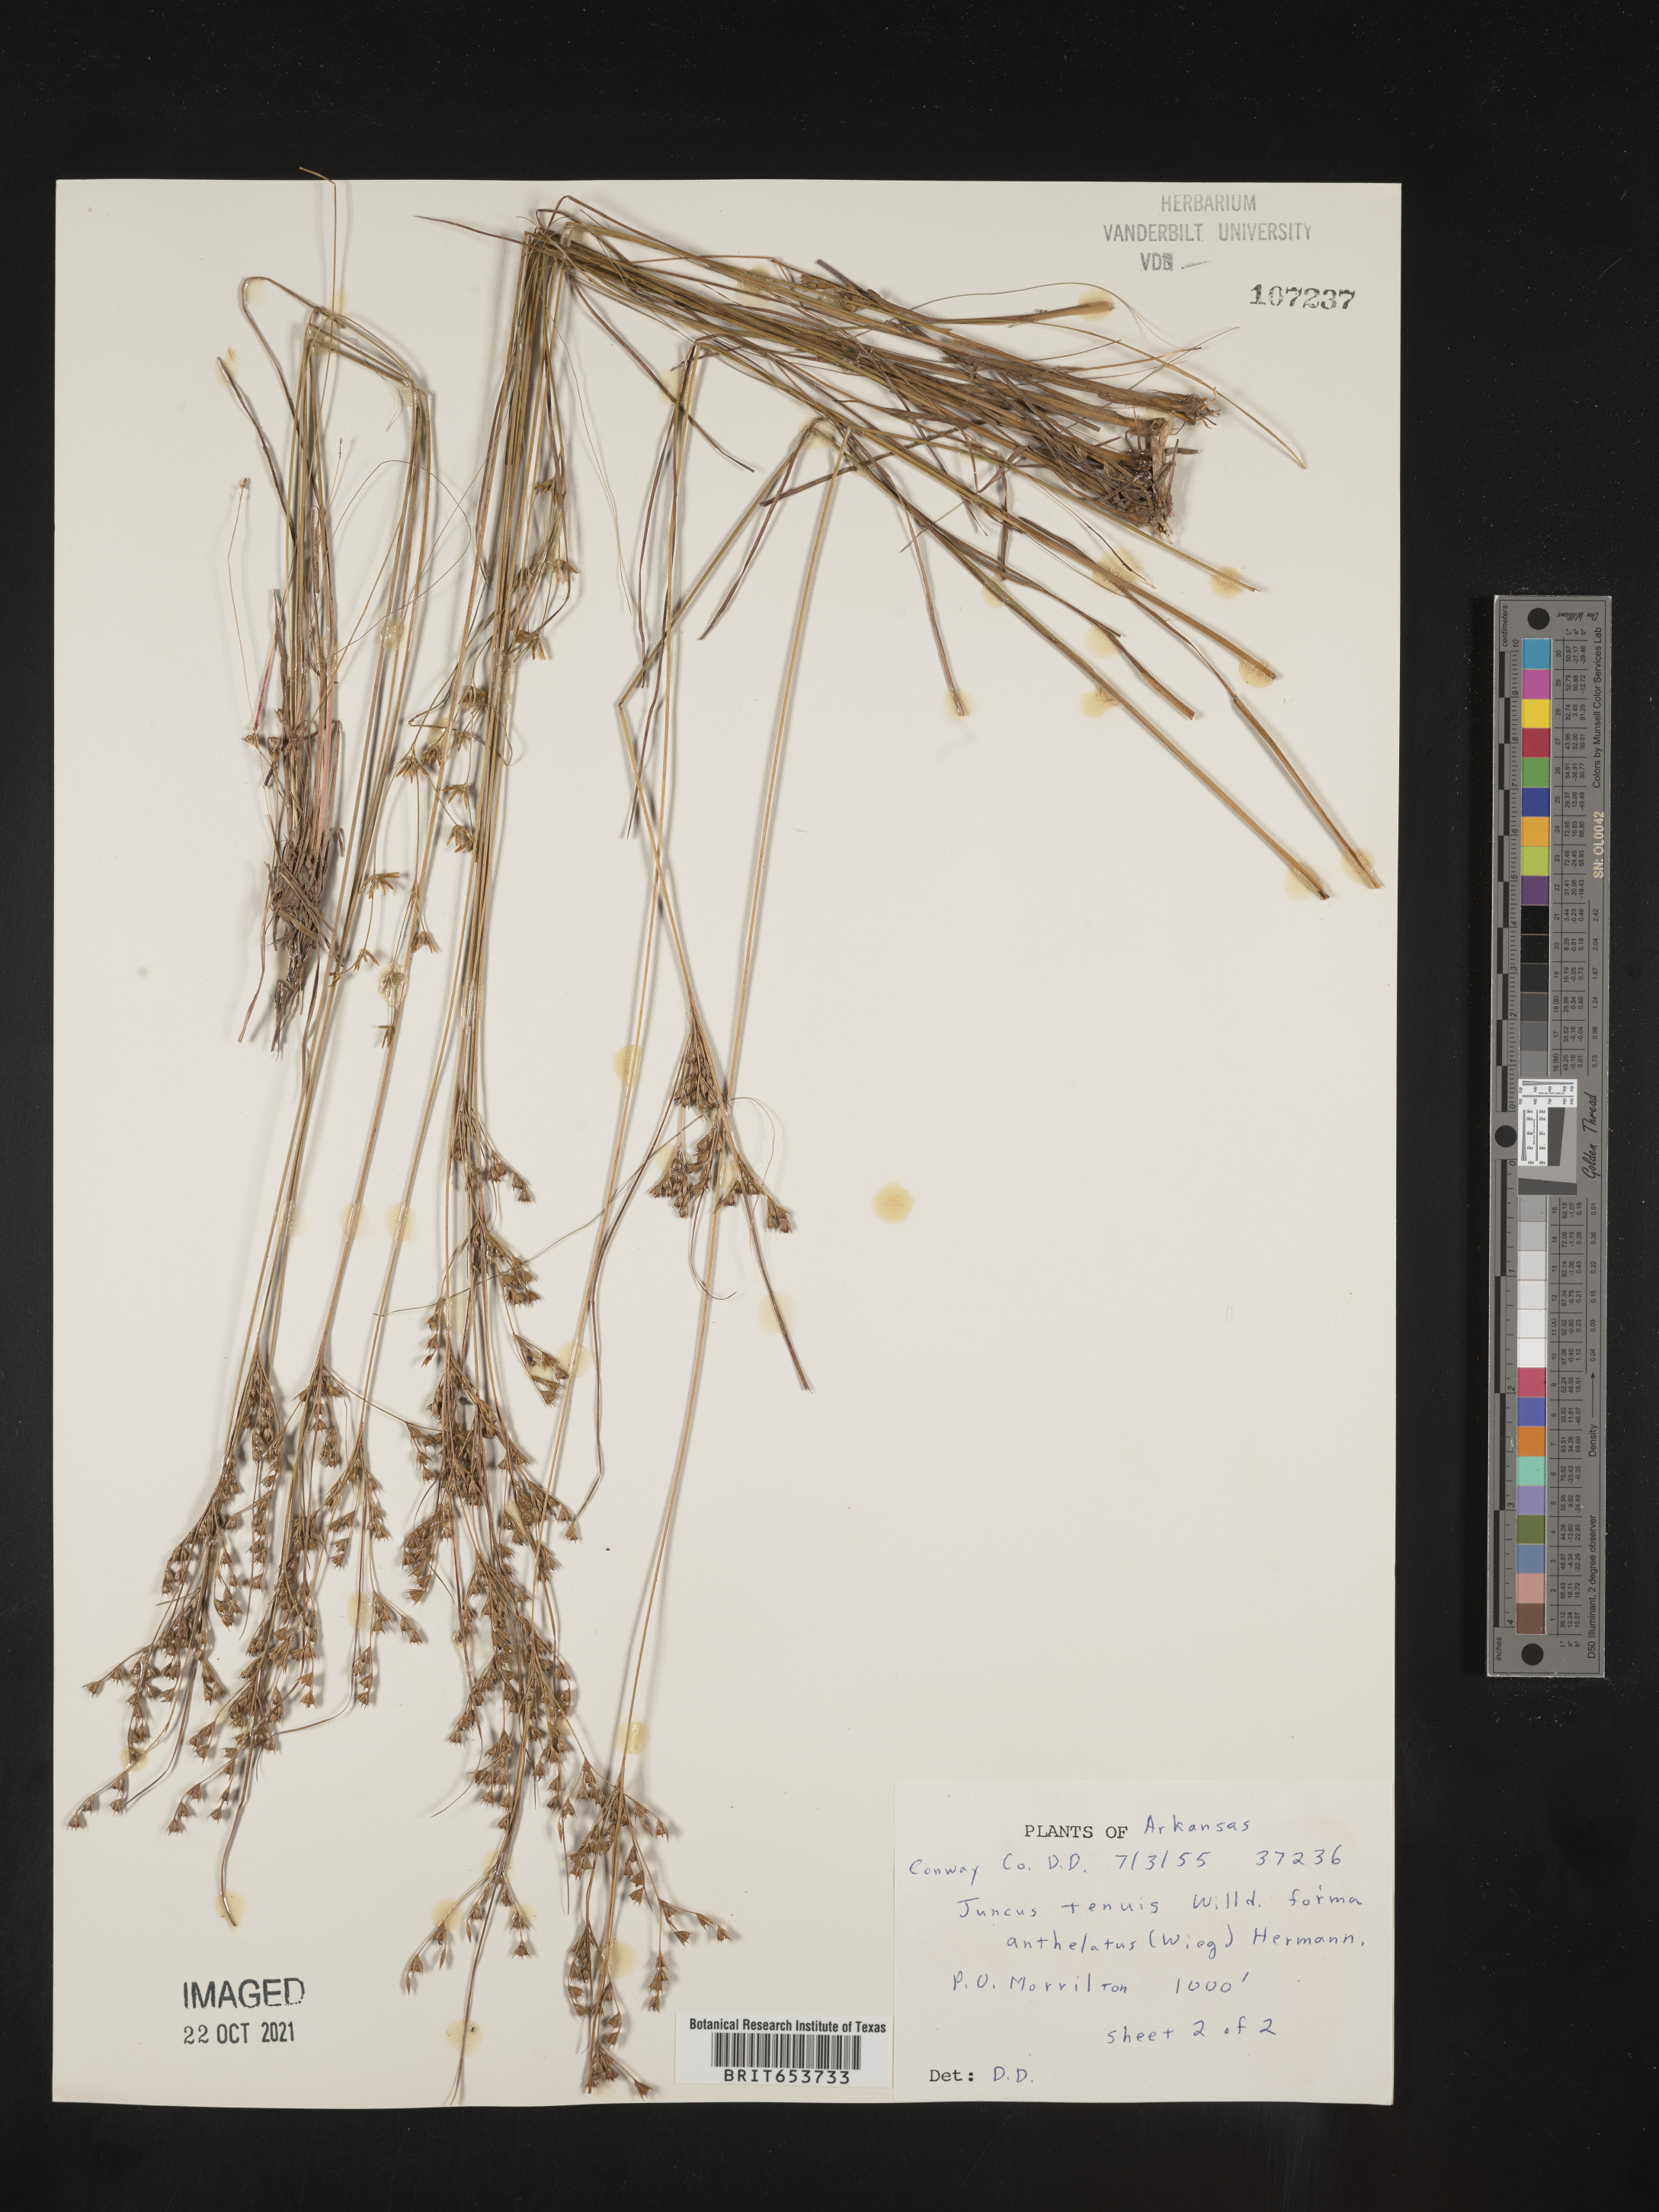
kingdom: Plantae
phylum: Tracheophyta
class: Liliopsida
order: Poales
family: Juncaceae
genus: Juncus
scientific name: Juncus tenuis
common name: Slender rush
